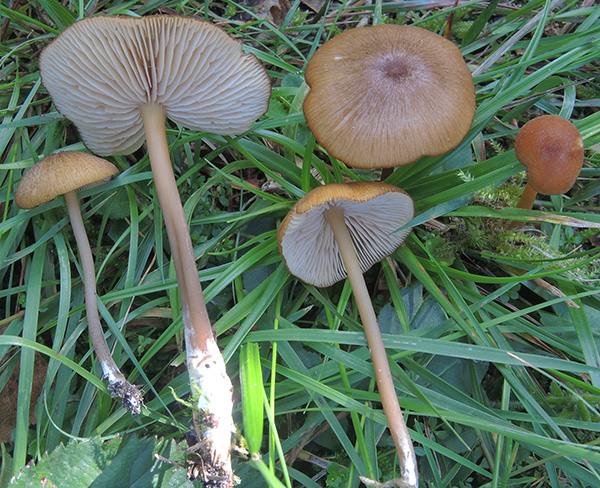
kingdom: Fungi
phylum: Basidiomycota
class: Agaricomycetes
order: Agaricales
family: Entolomataceae
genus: Entoloma
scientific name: Entoloma formosum
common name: brungul rødblad
